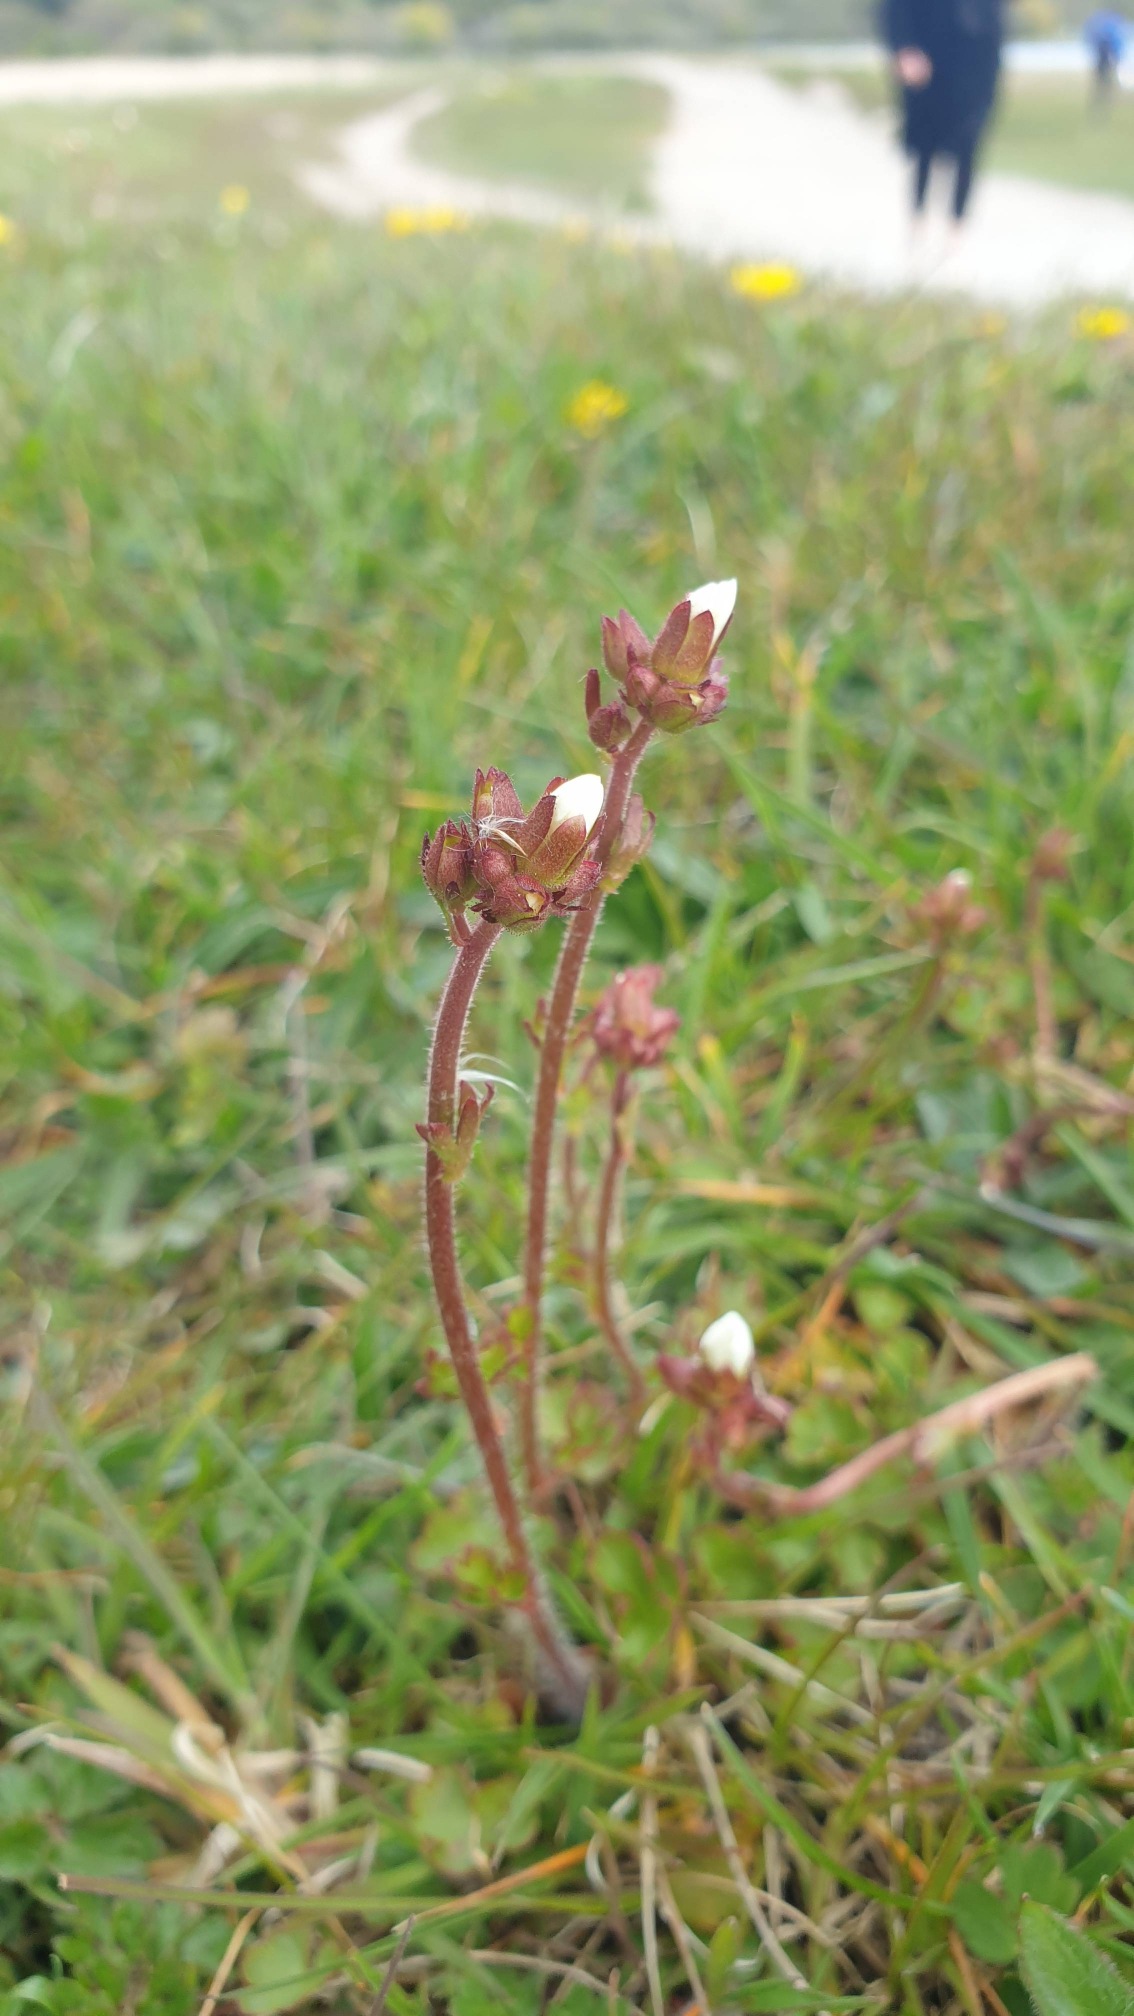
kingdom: Plantae
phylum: Tracheophyta
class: Magnoliopsida
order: Saxifragales
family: Saxifragaceae
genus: Saxifraga
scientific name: Saxifraga granulata
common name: Kornet stenbræk
